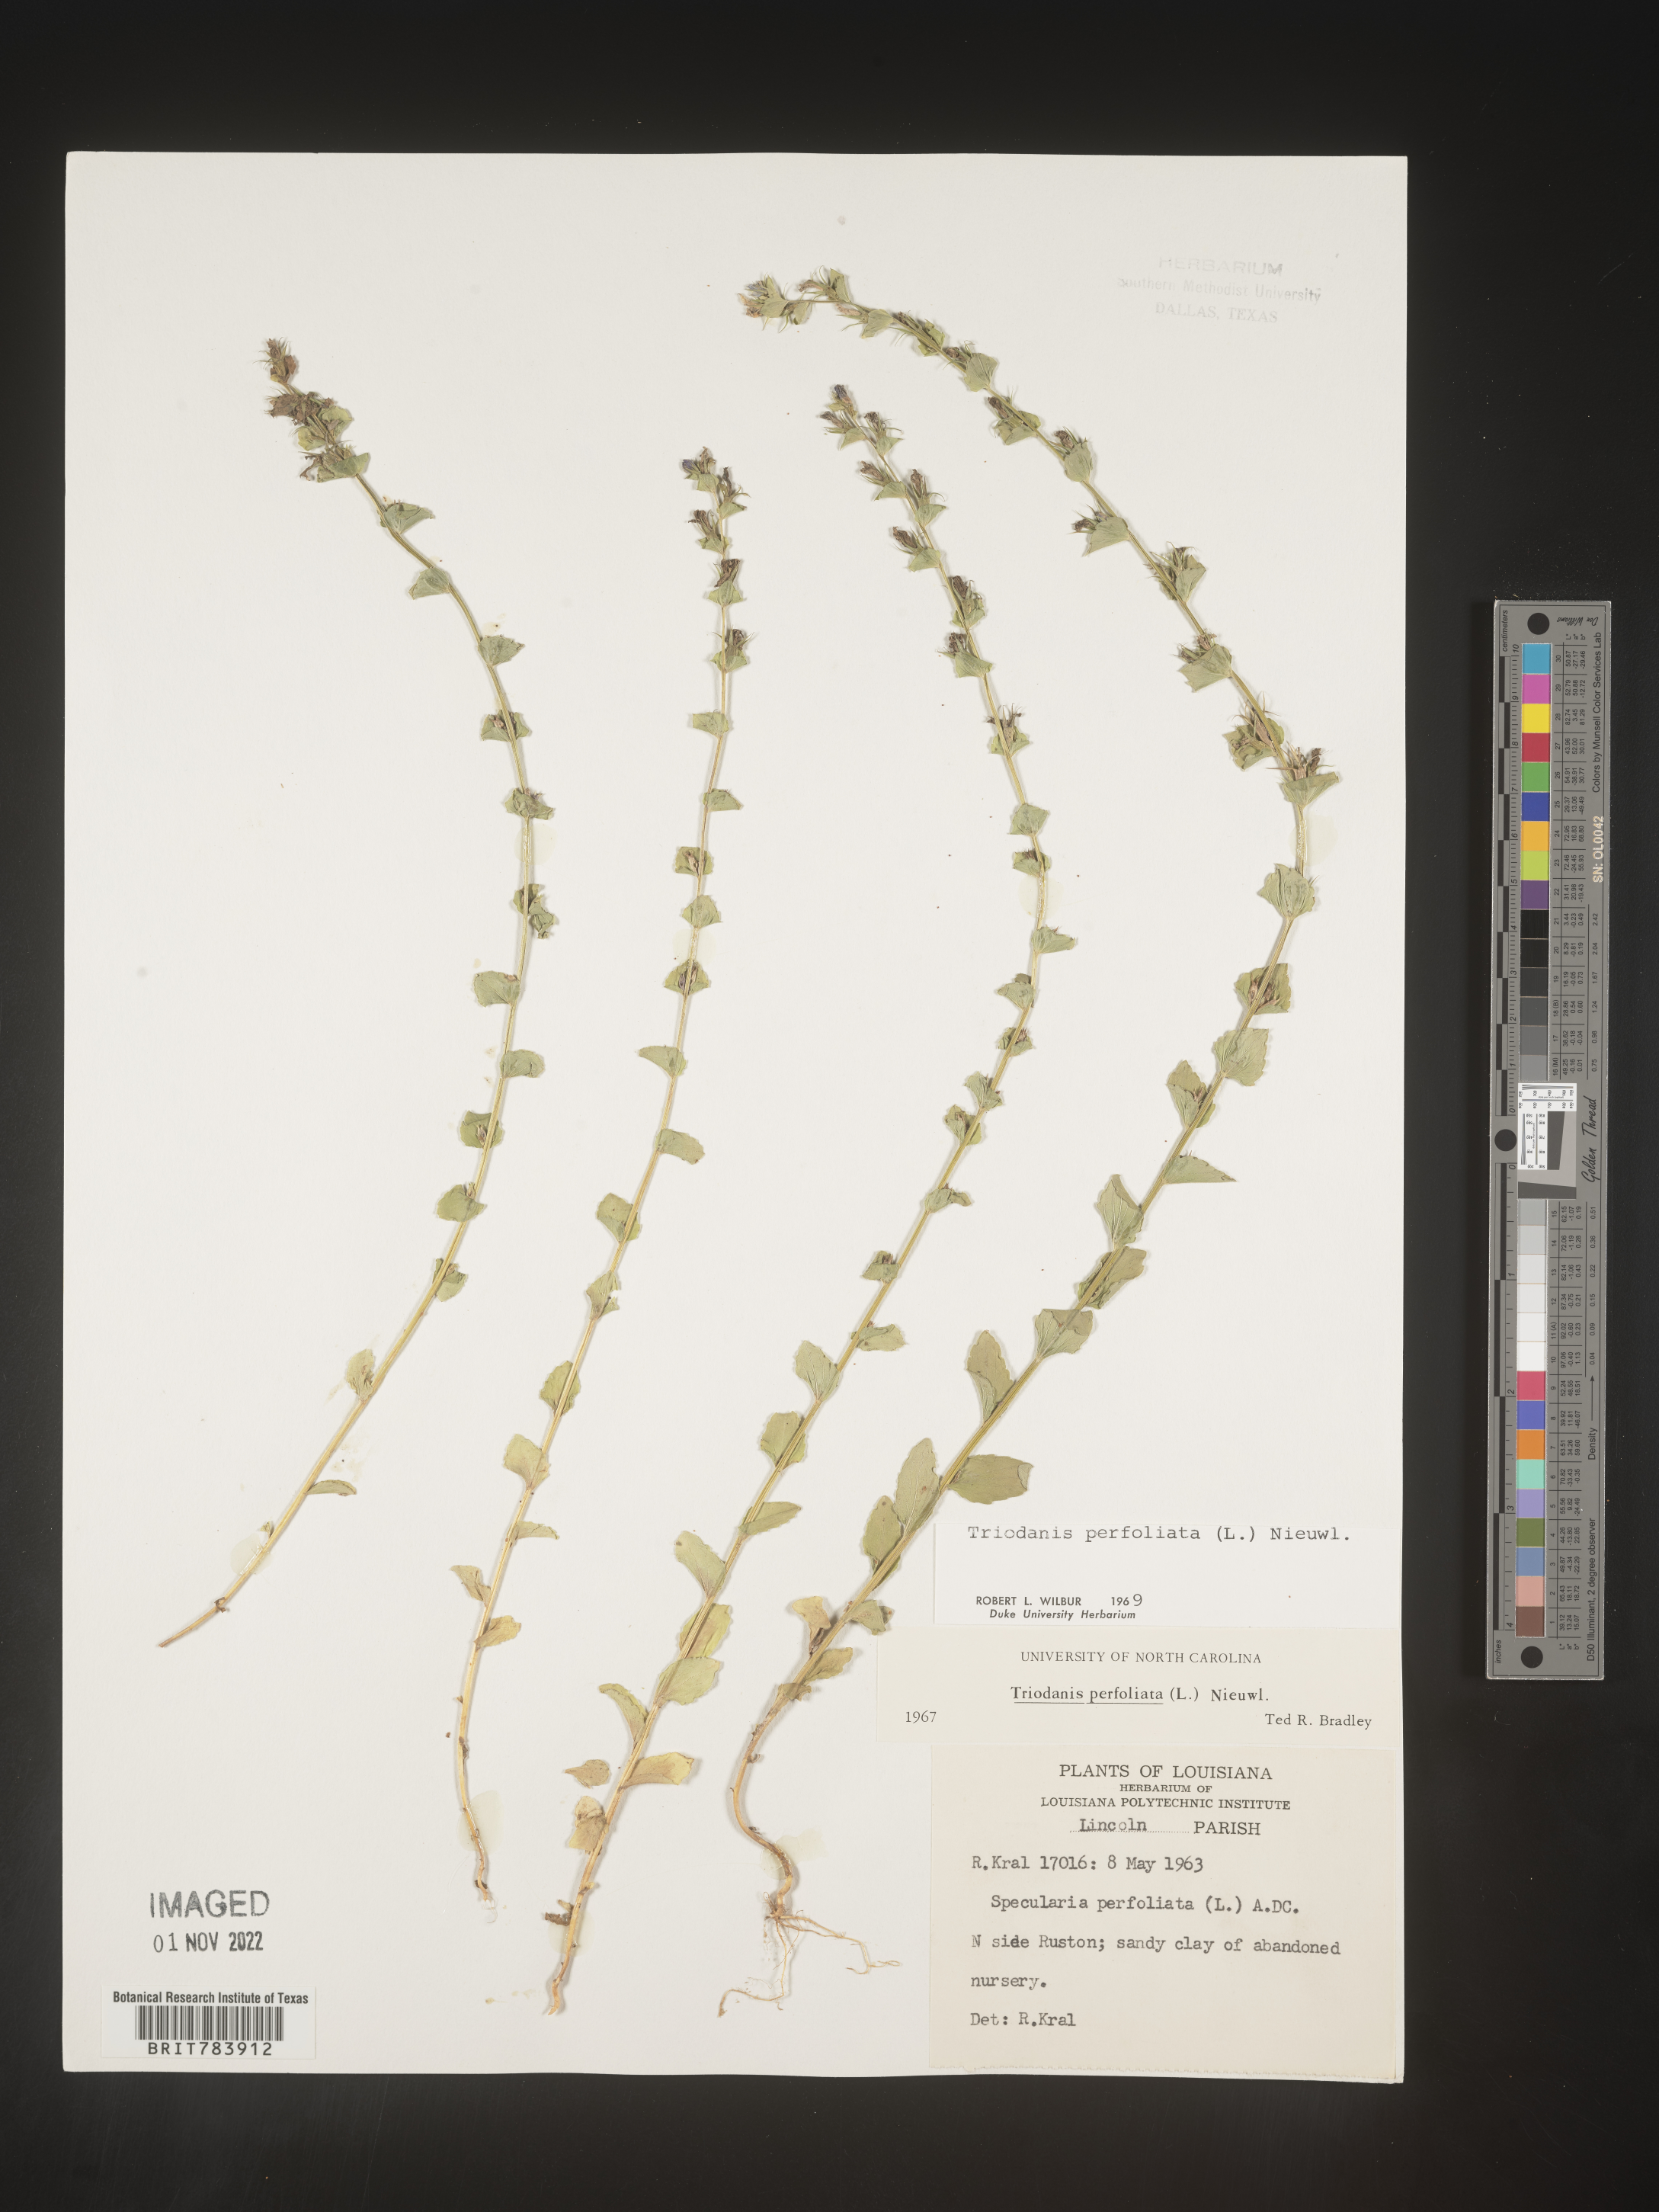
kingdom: Plantae
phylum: Tracheophyta
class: Magnoliopsida
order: Asterales
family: Campanulaceae
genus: Triodanis
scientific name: Triodanis perfoliata
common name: Clasping venus' looking-glass
